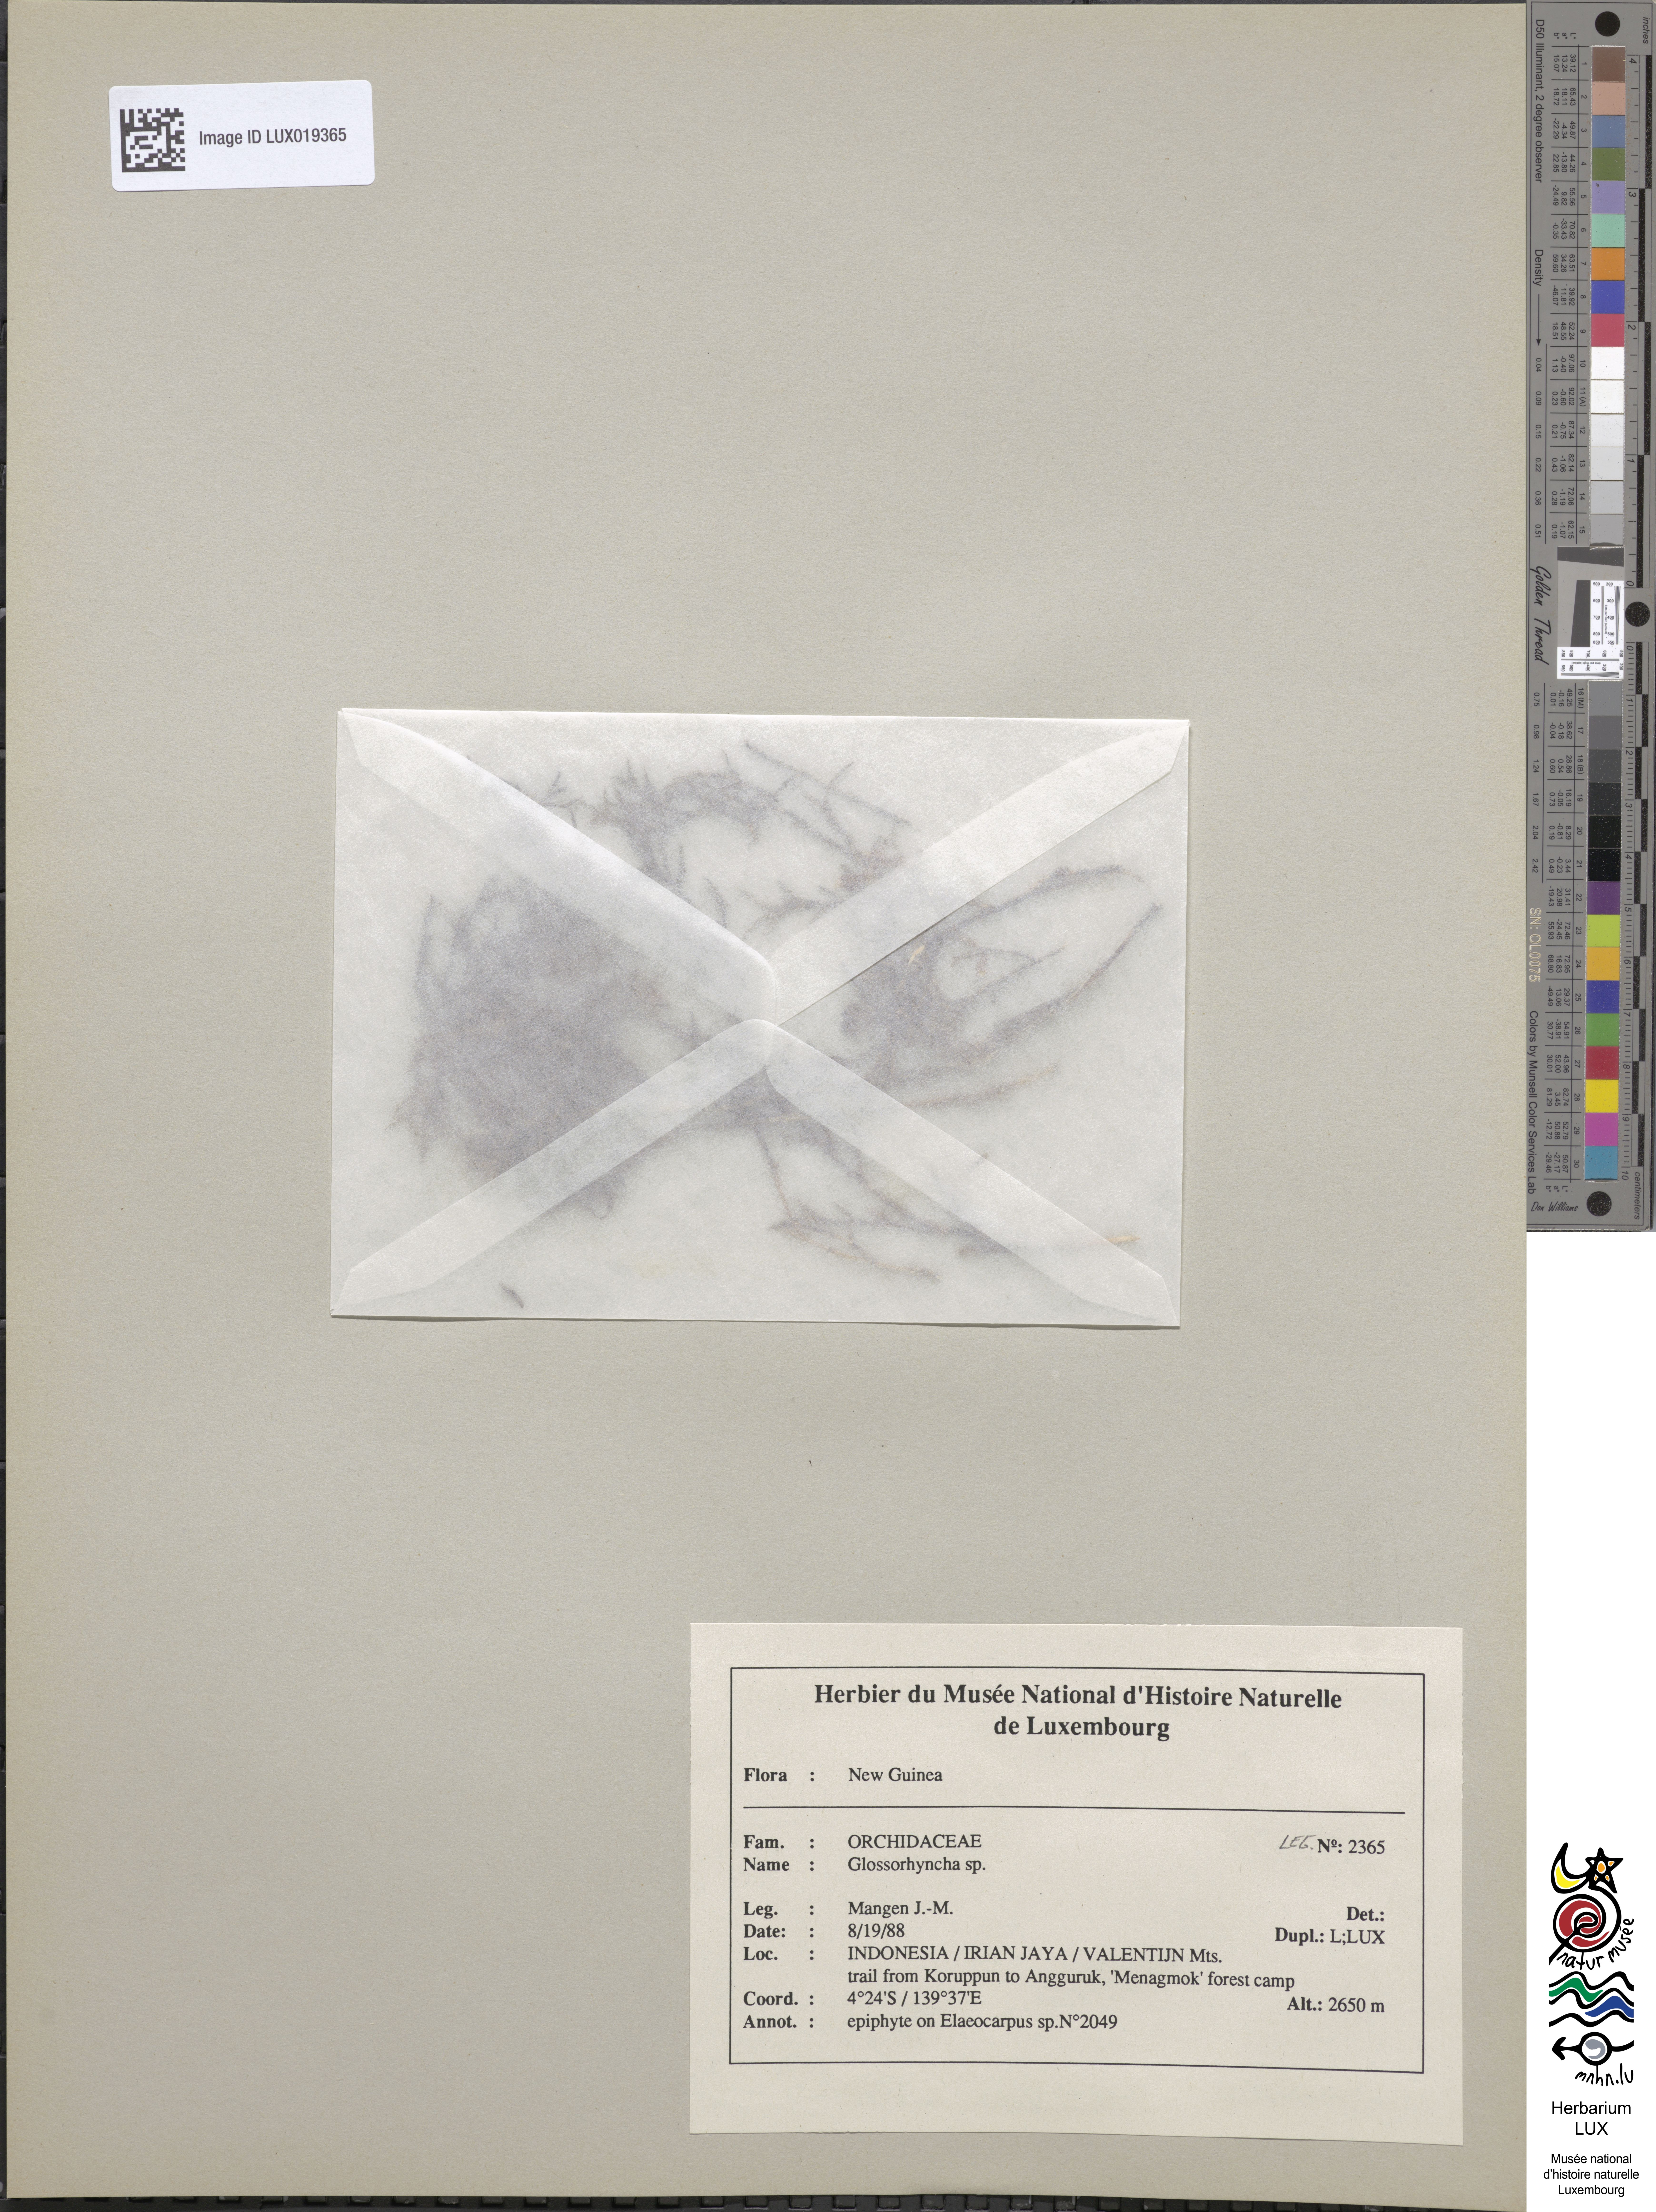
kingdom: Plantae
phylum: Tracheophyta
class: Liliopsida
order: Asparagales
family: Orchidaceae
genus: Glomera
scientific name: Glomera
